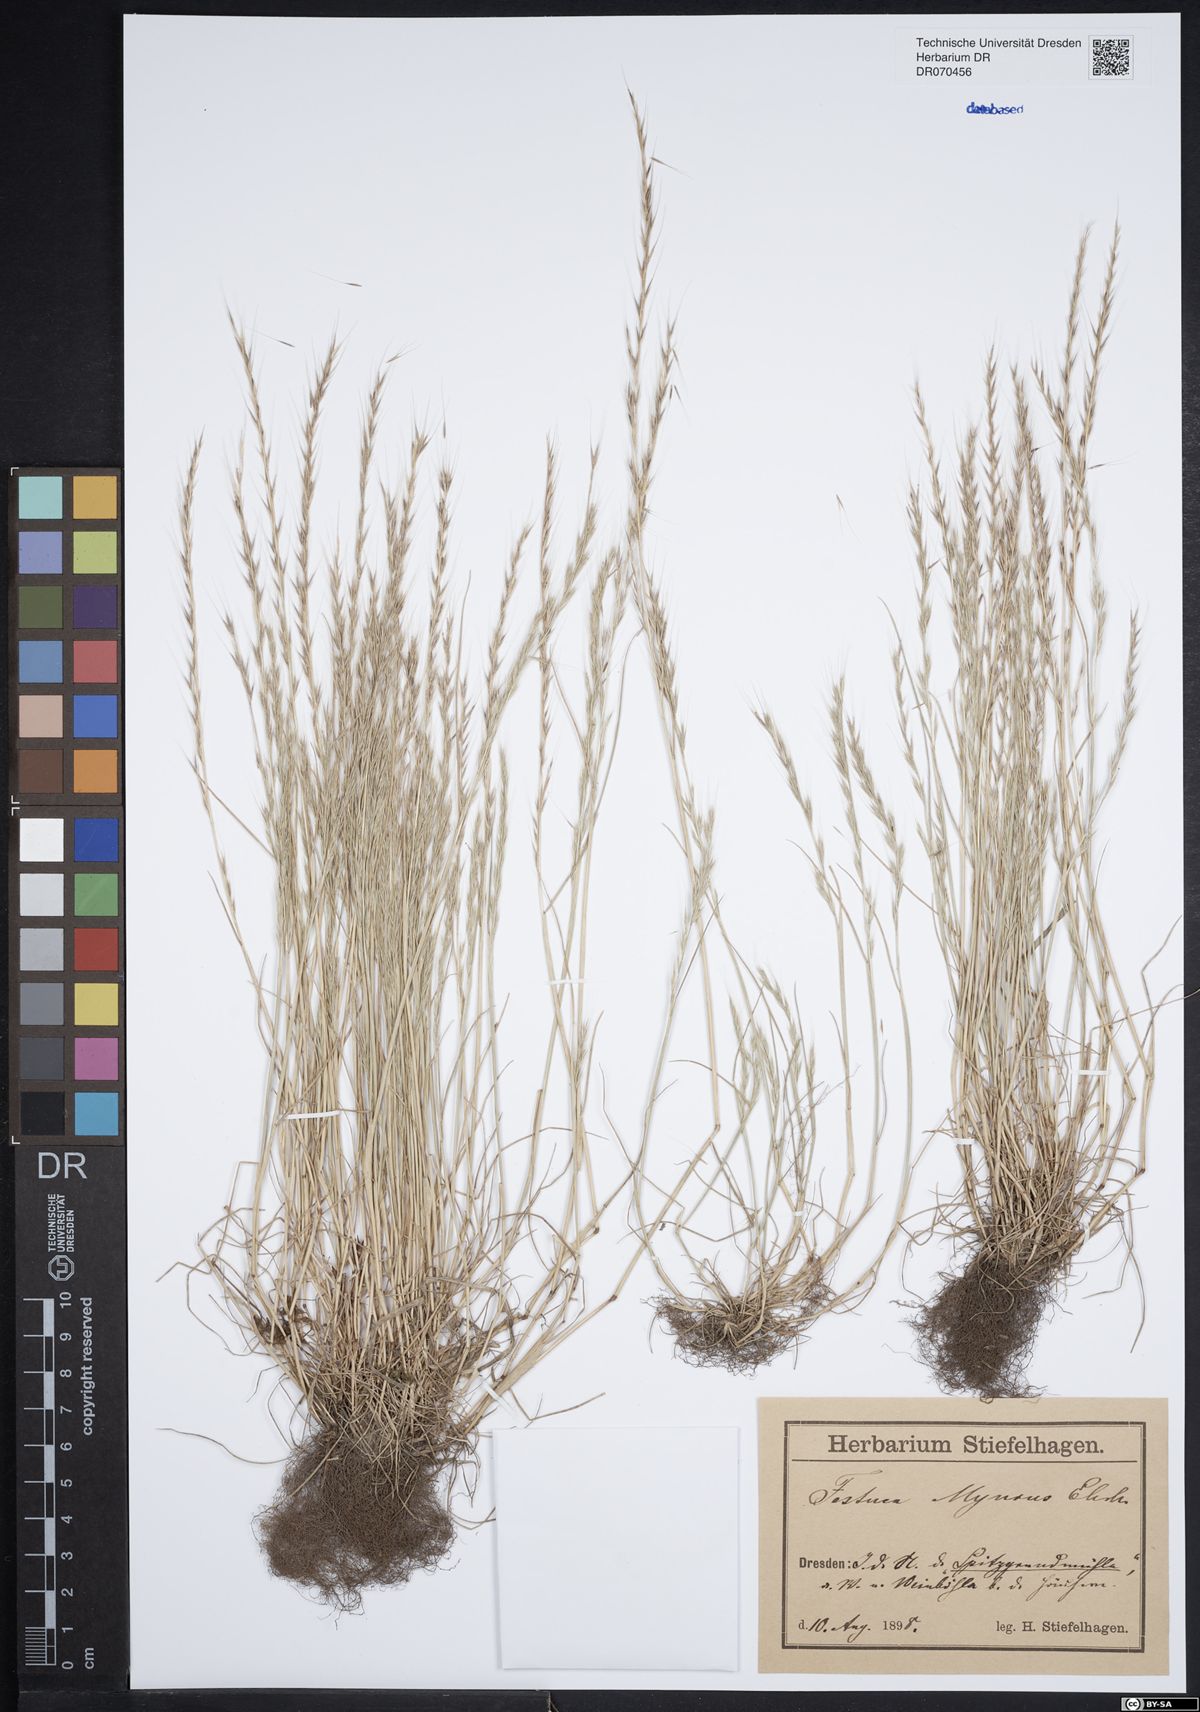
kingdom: Plantae
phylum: Tracheophyta
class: Liliopsida
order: Poales
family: Poaceae
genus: Festuca
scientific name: Festuca myuros
